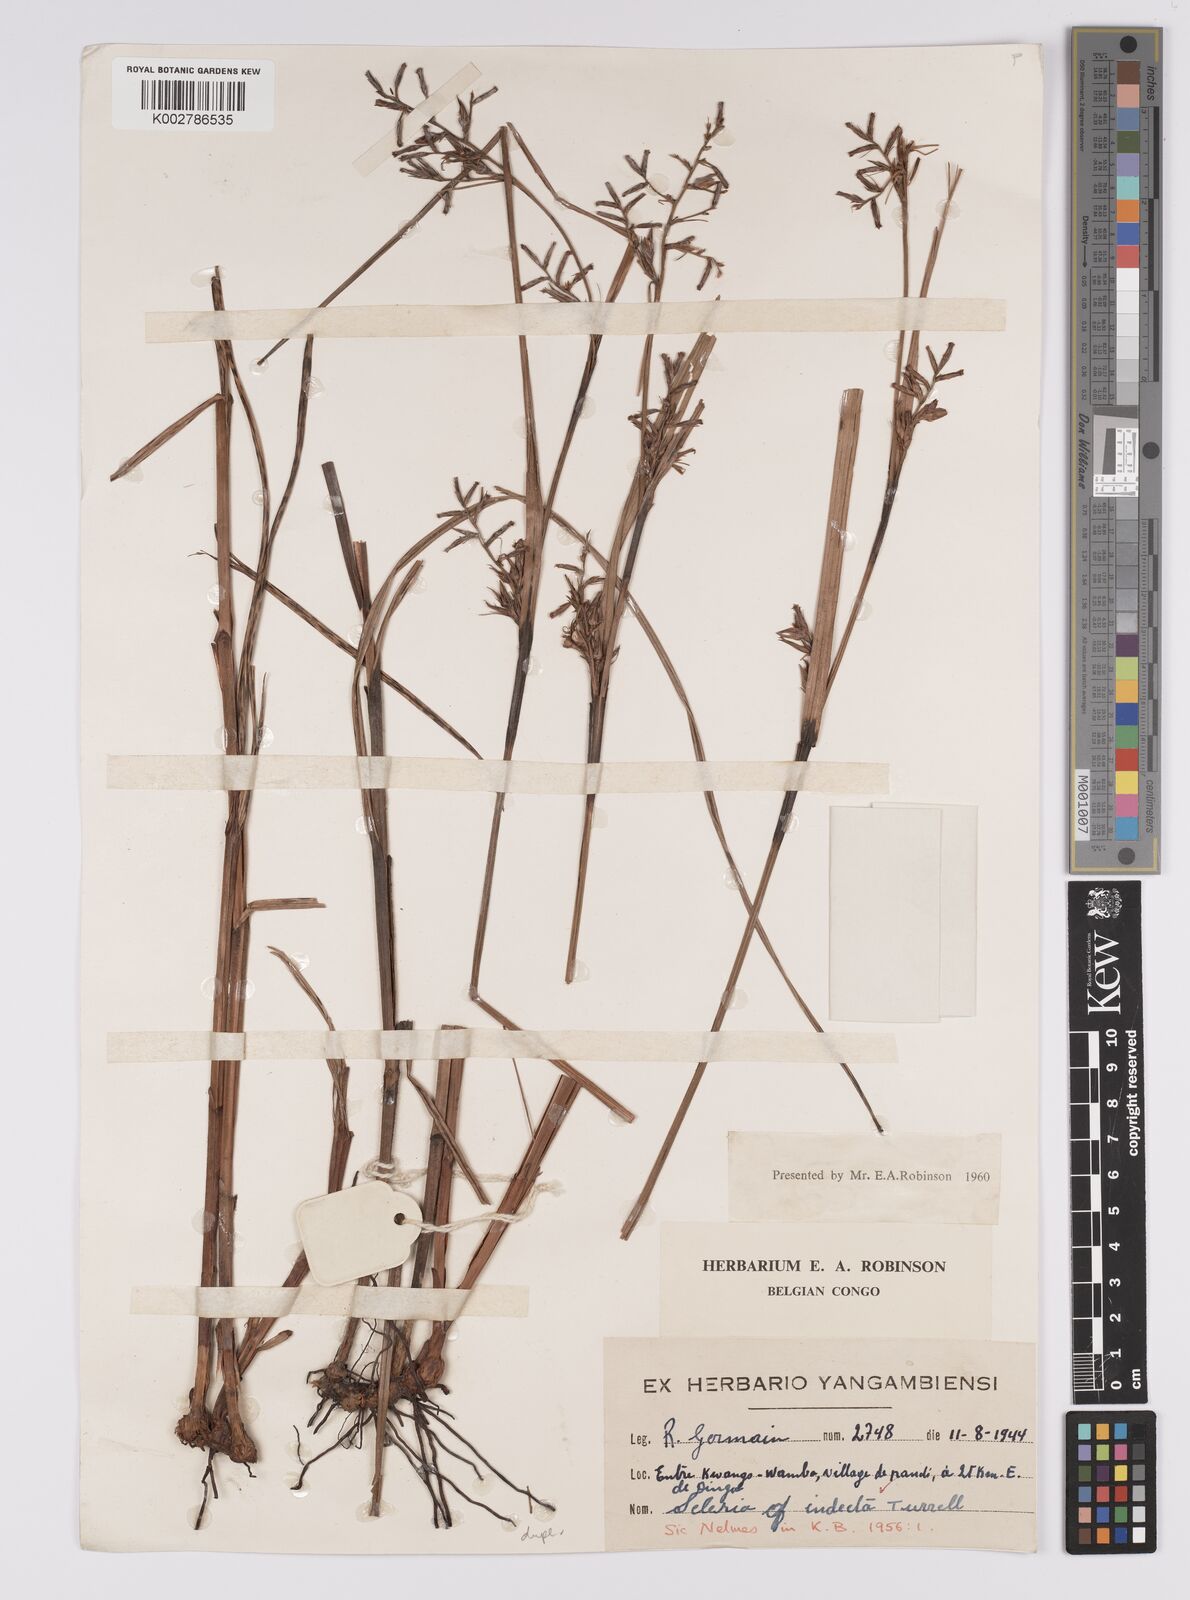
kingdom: Plantae
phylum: Tracheophyta
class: Liliopsida
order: Poales
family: Cyperaceae
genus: Scleria
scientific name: Scleria induta
